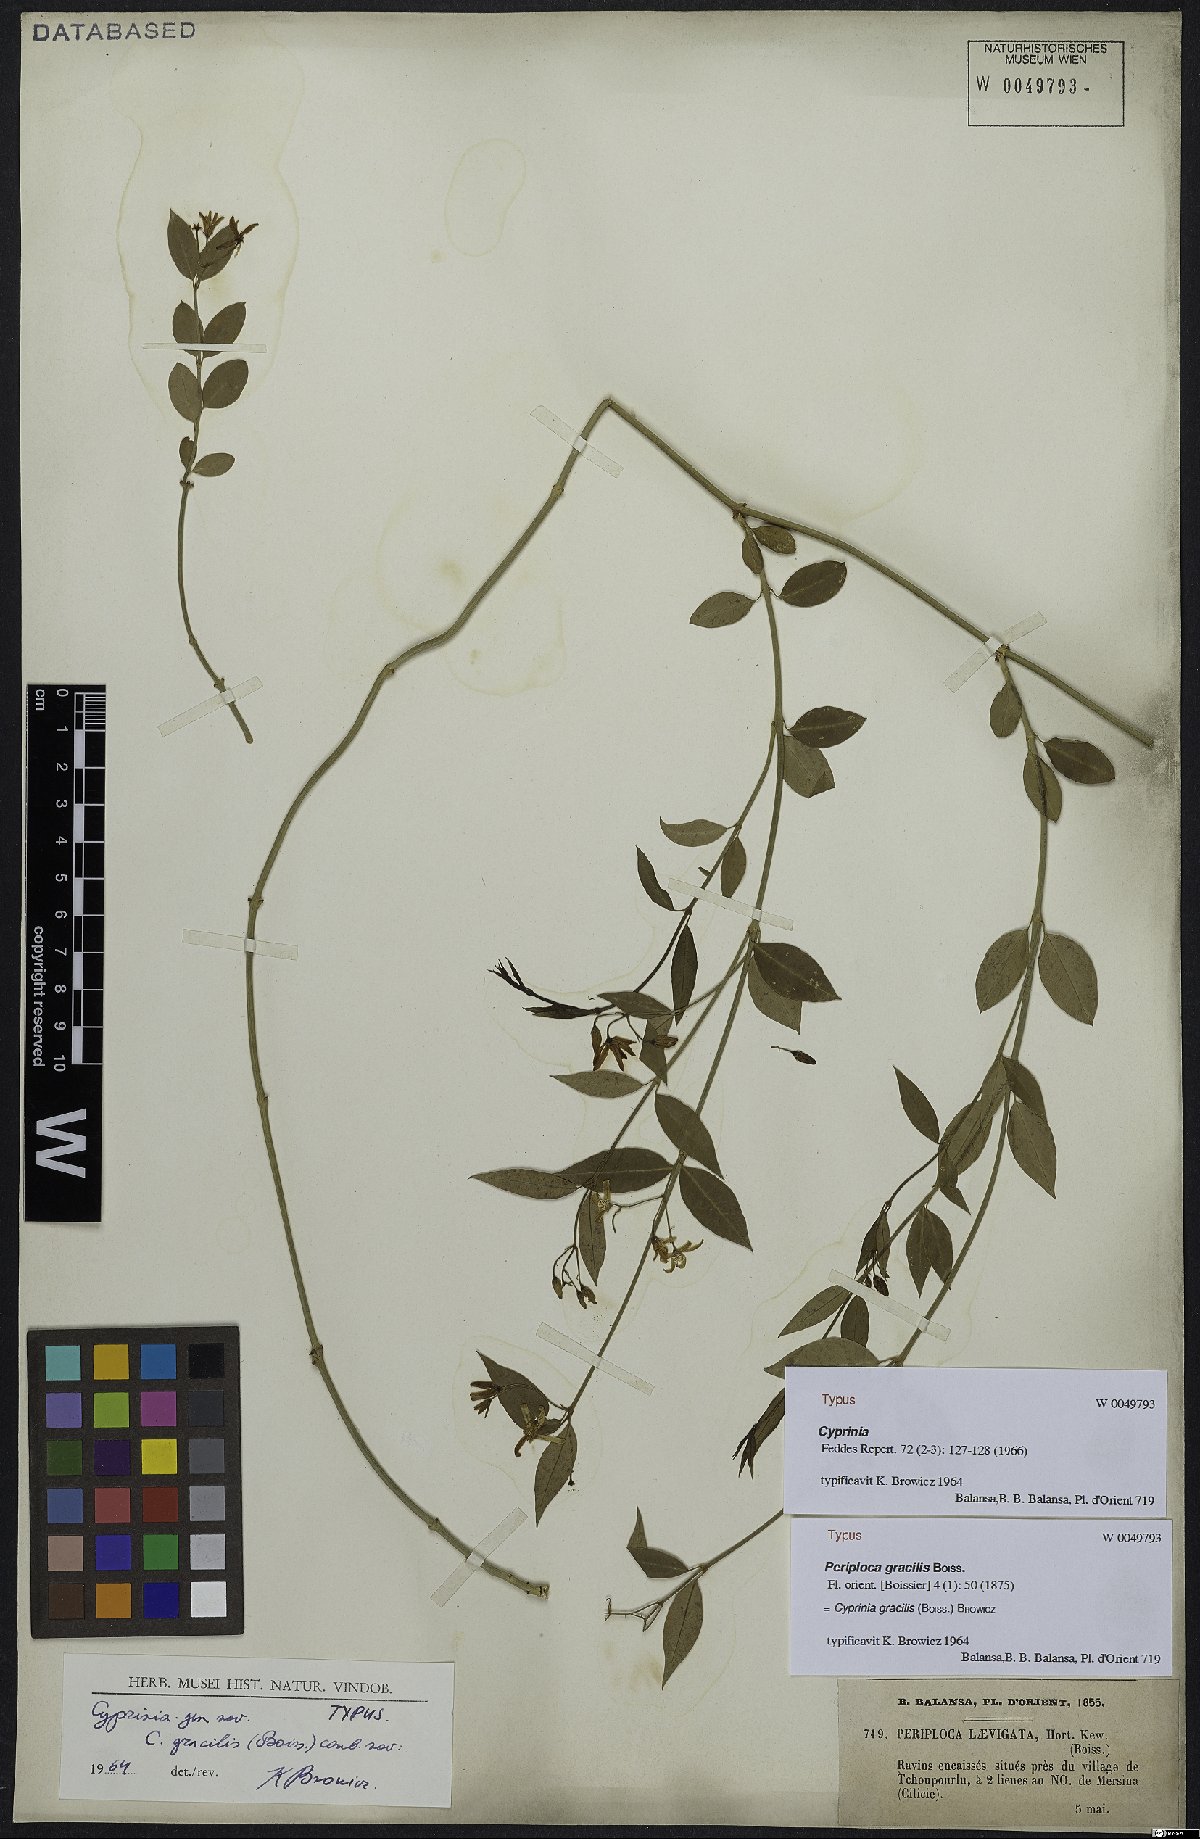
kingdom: Plantae
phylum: Tracheophyta
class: Magnoliopsida
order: Gentianales
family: Apocynaceae
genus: Periploca
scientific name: Periploca gracilis
